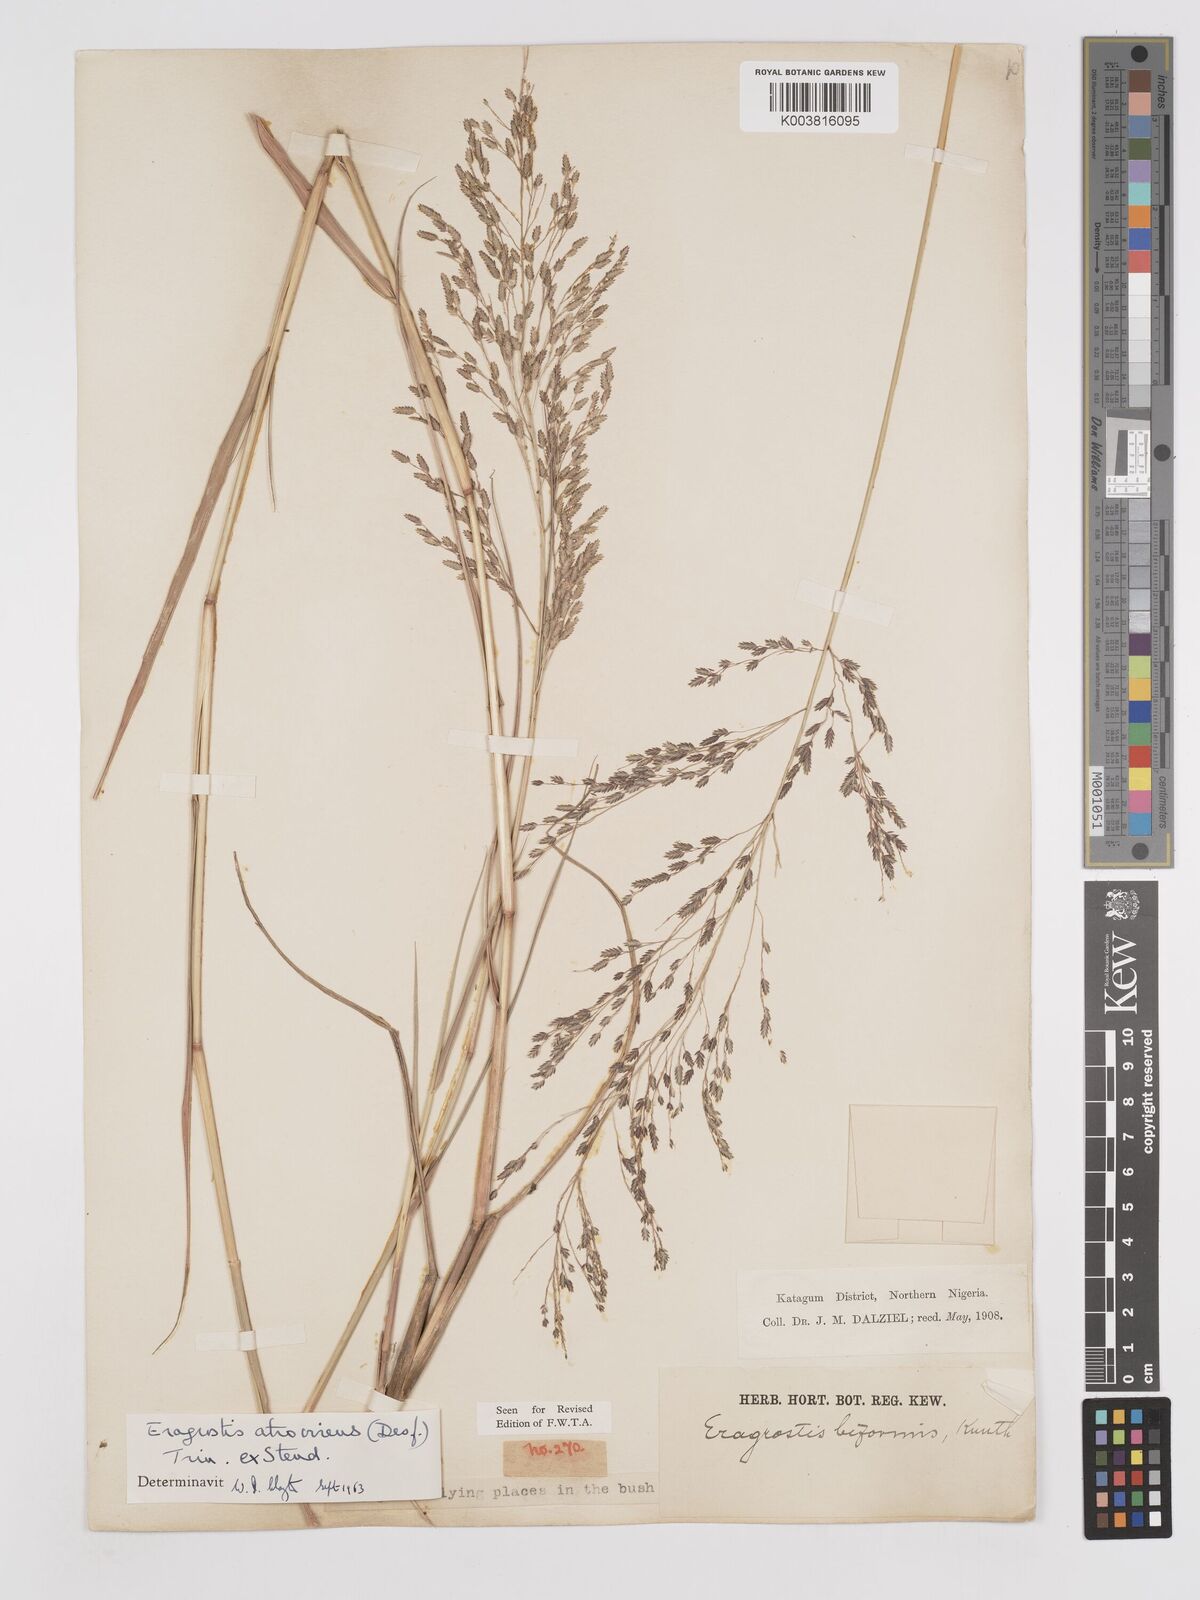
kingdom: Plantae
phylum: Tracheophyta
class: Liliopsida
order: Poales
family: Poaceae
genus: Eragrostis
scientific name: Eragrostis atrovirens
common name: Thalia lovegrass
